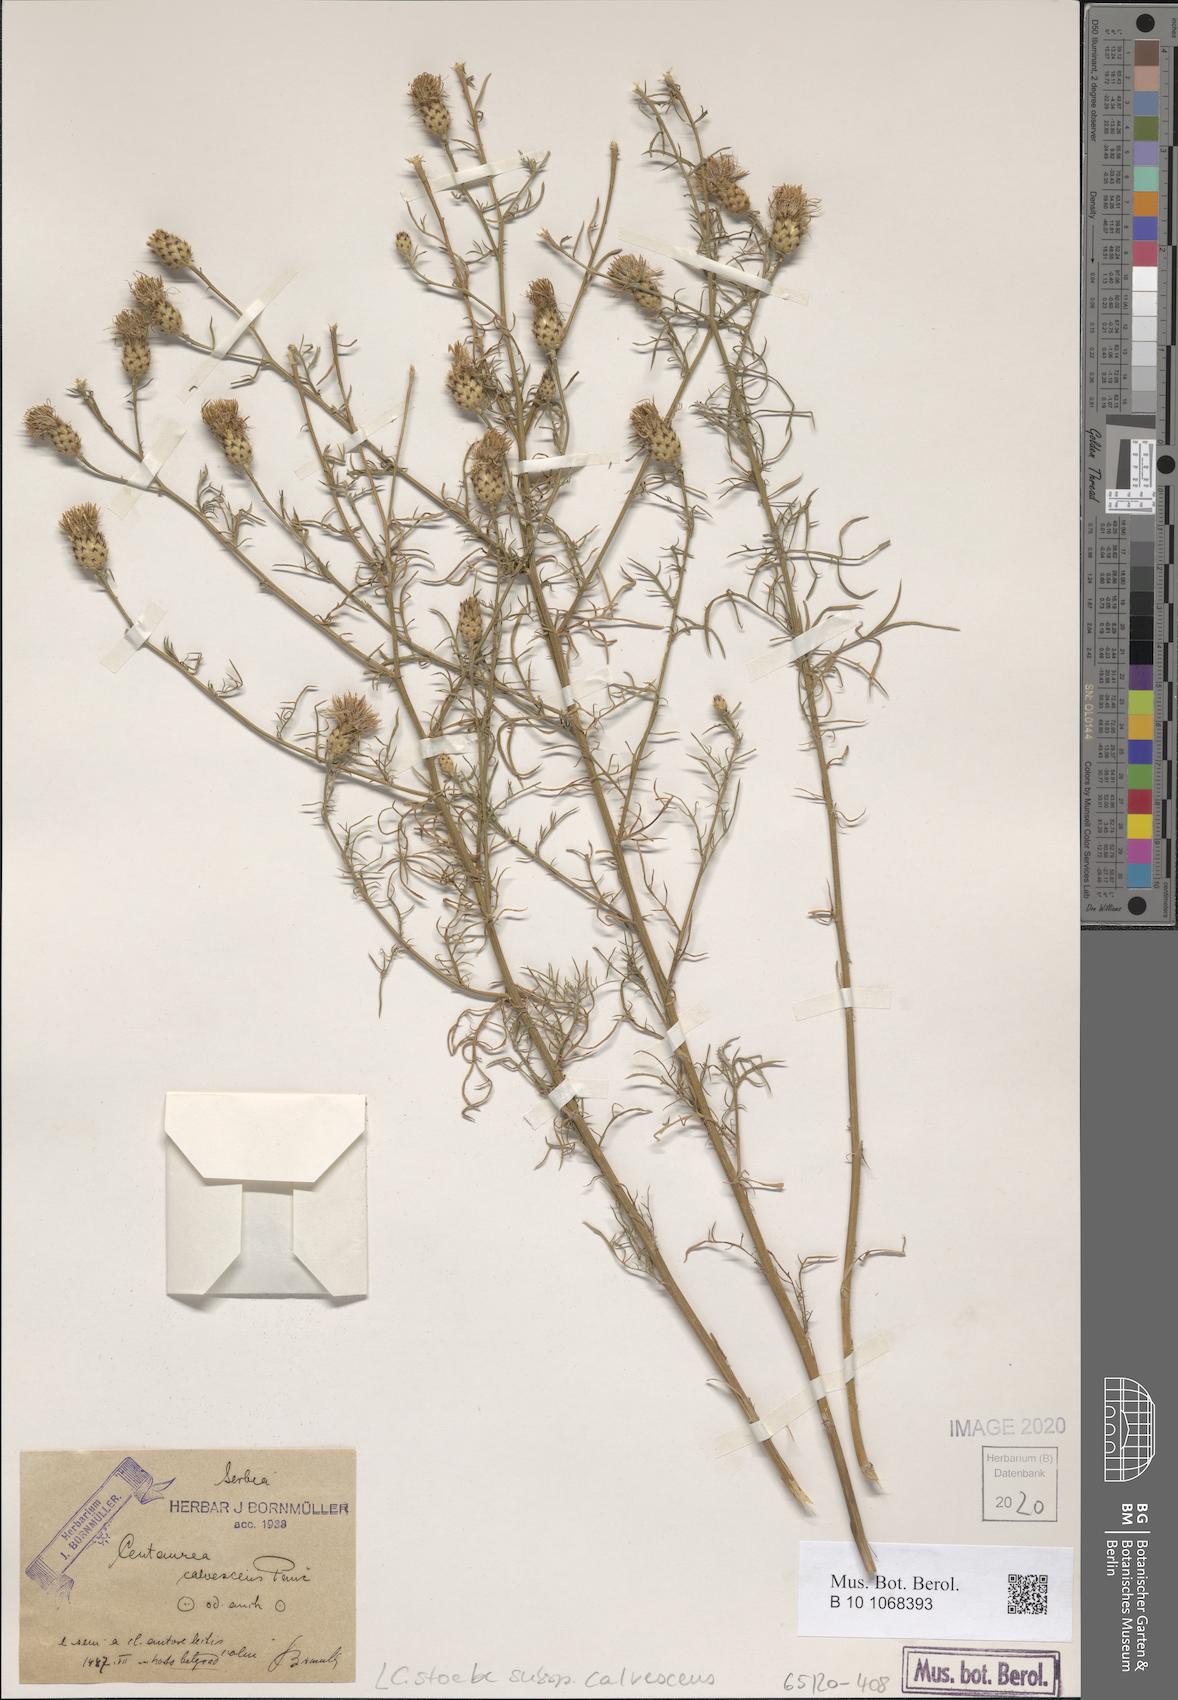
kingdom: Plantae
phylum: Tracheophyta
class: Magnoliopsida
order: Asterales
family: Asteraceae
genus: Centaurea
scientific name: Centaurea reichenbachii
